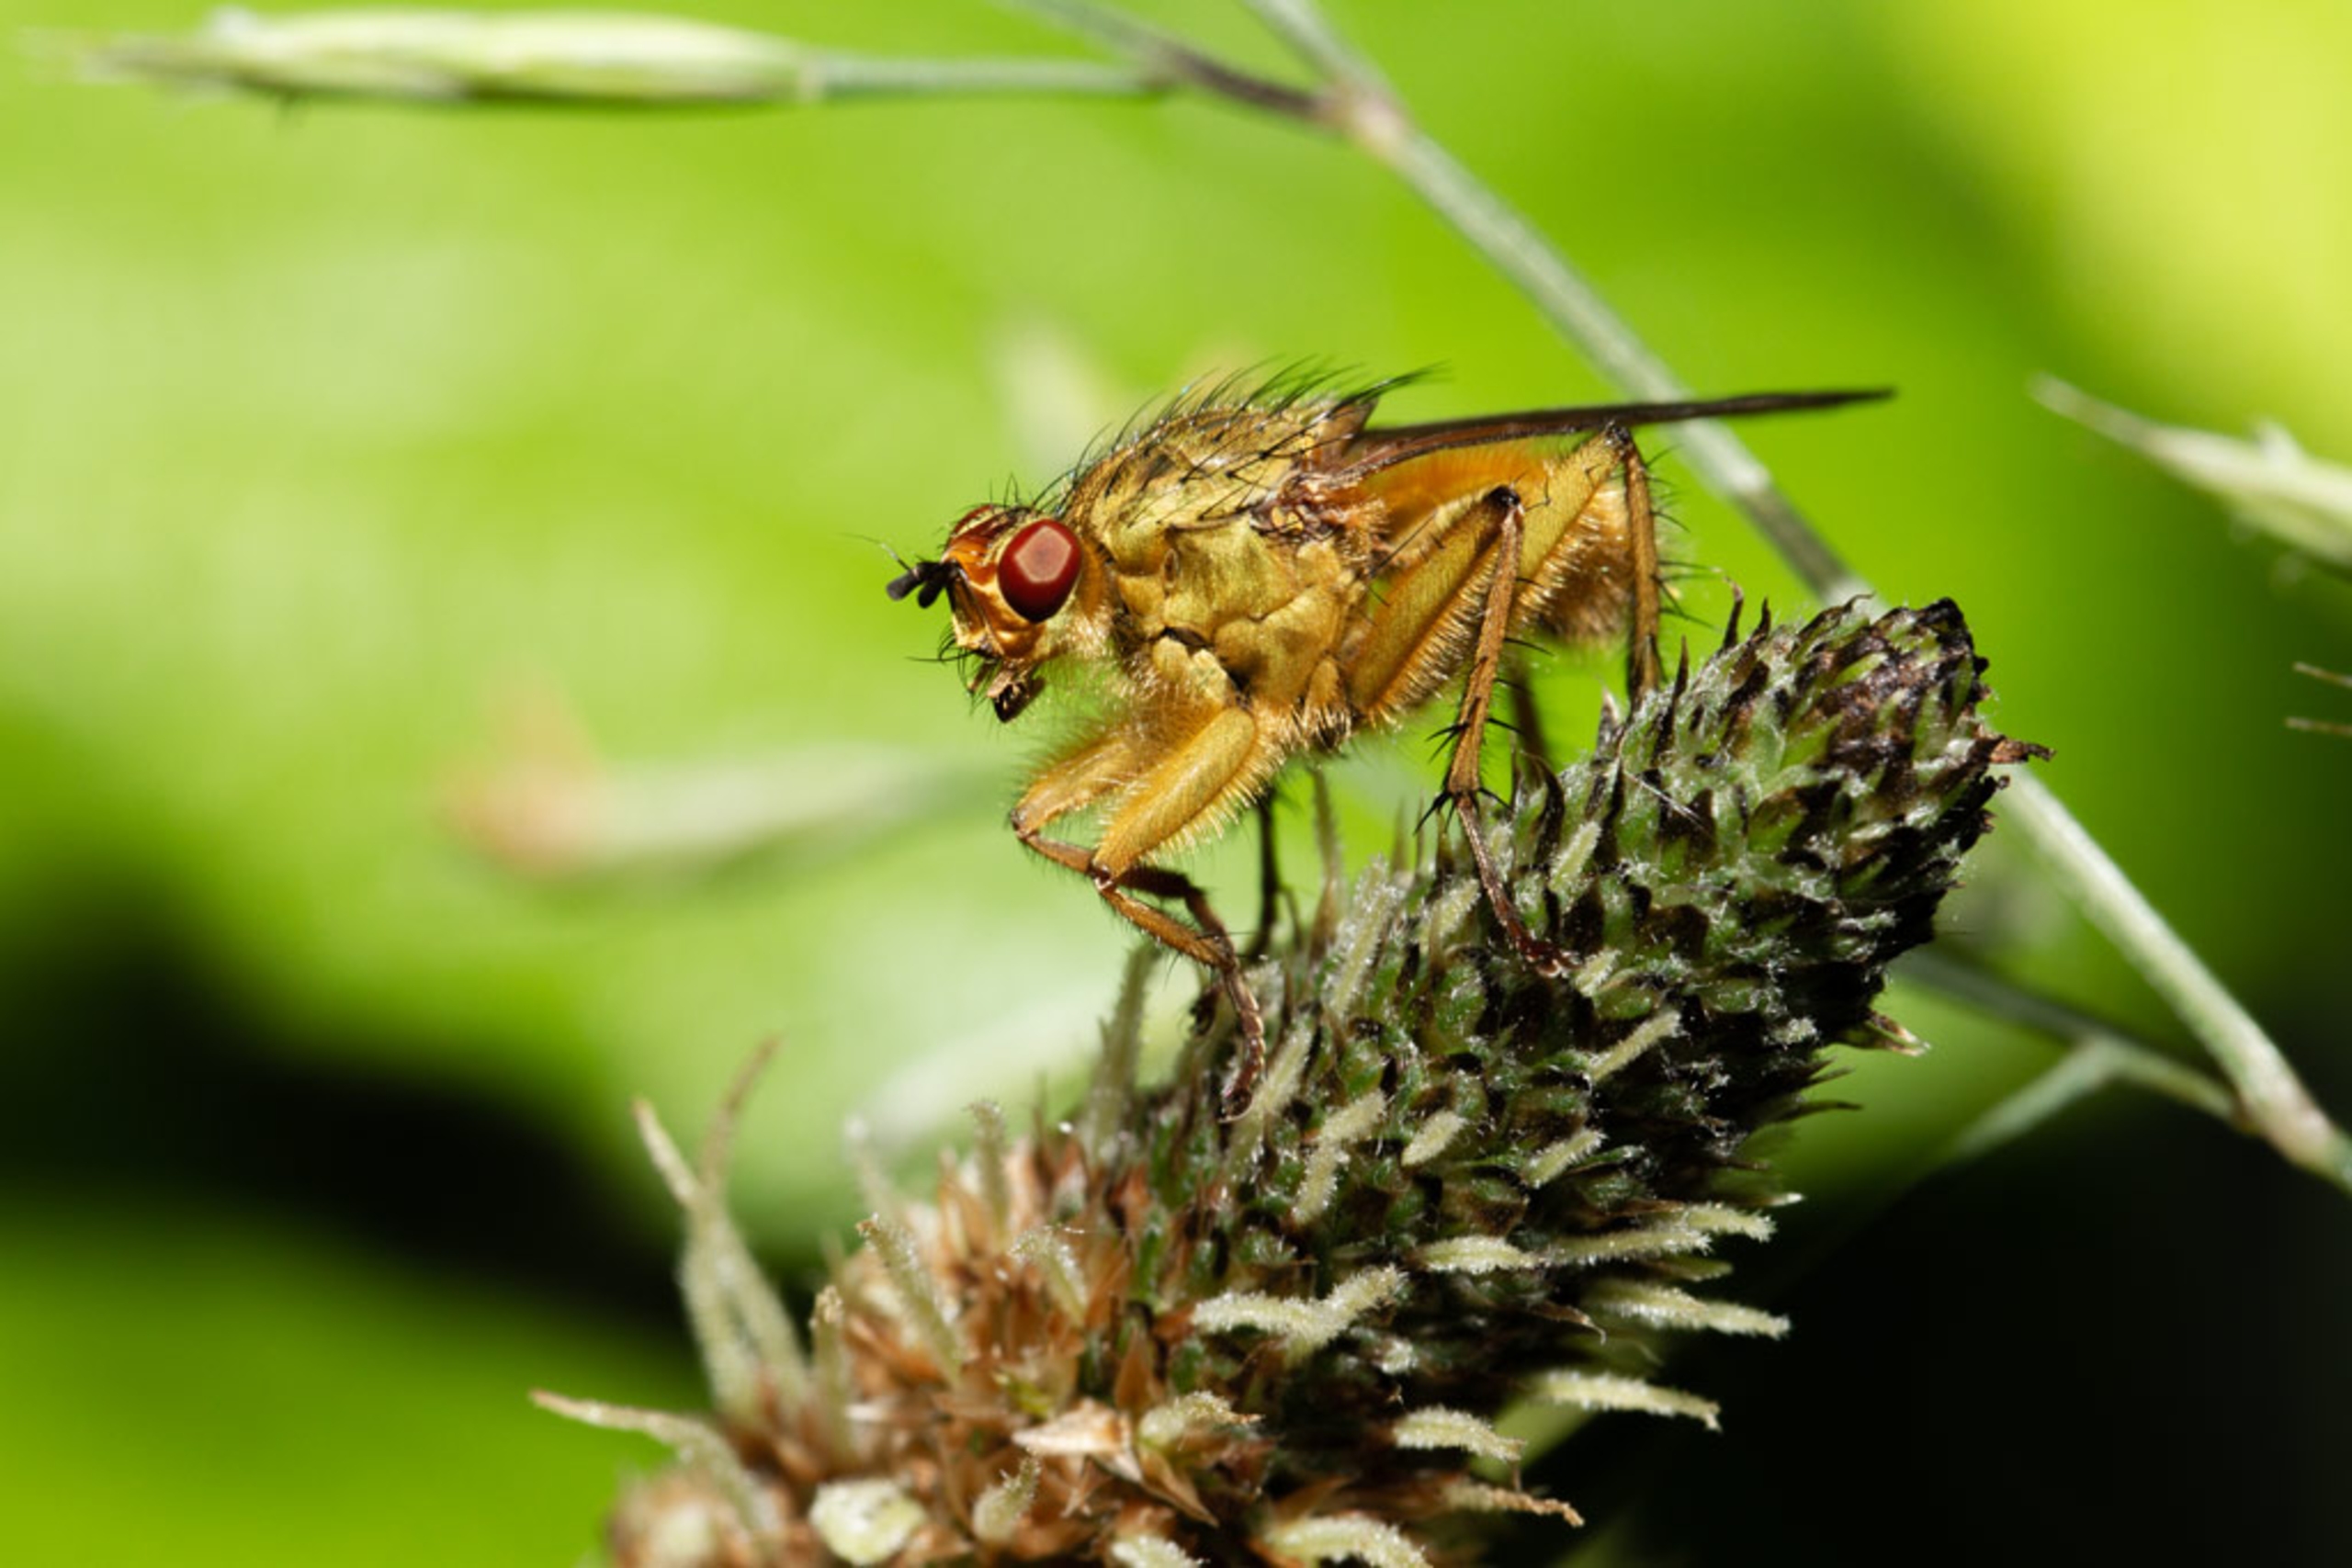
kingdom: Animalia
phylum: Arthropoda
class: Insecta
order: Diptera
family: Scathophagidae
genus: Scathophaga
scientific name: Scathophaga stercoraria
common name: Almindelig gødningsflue
